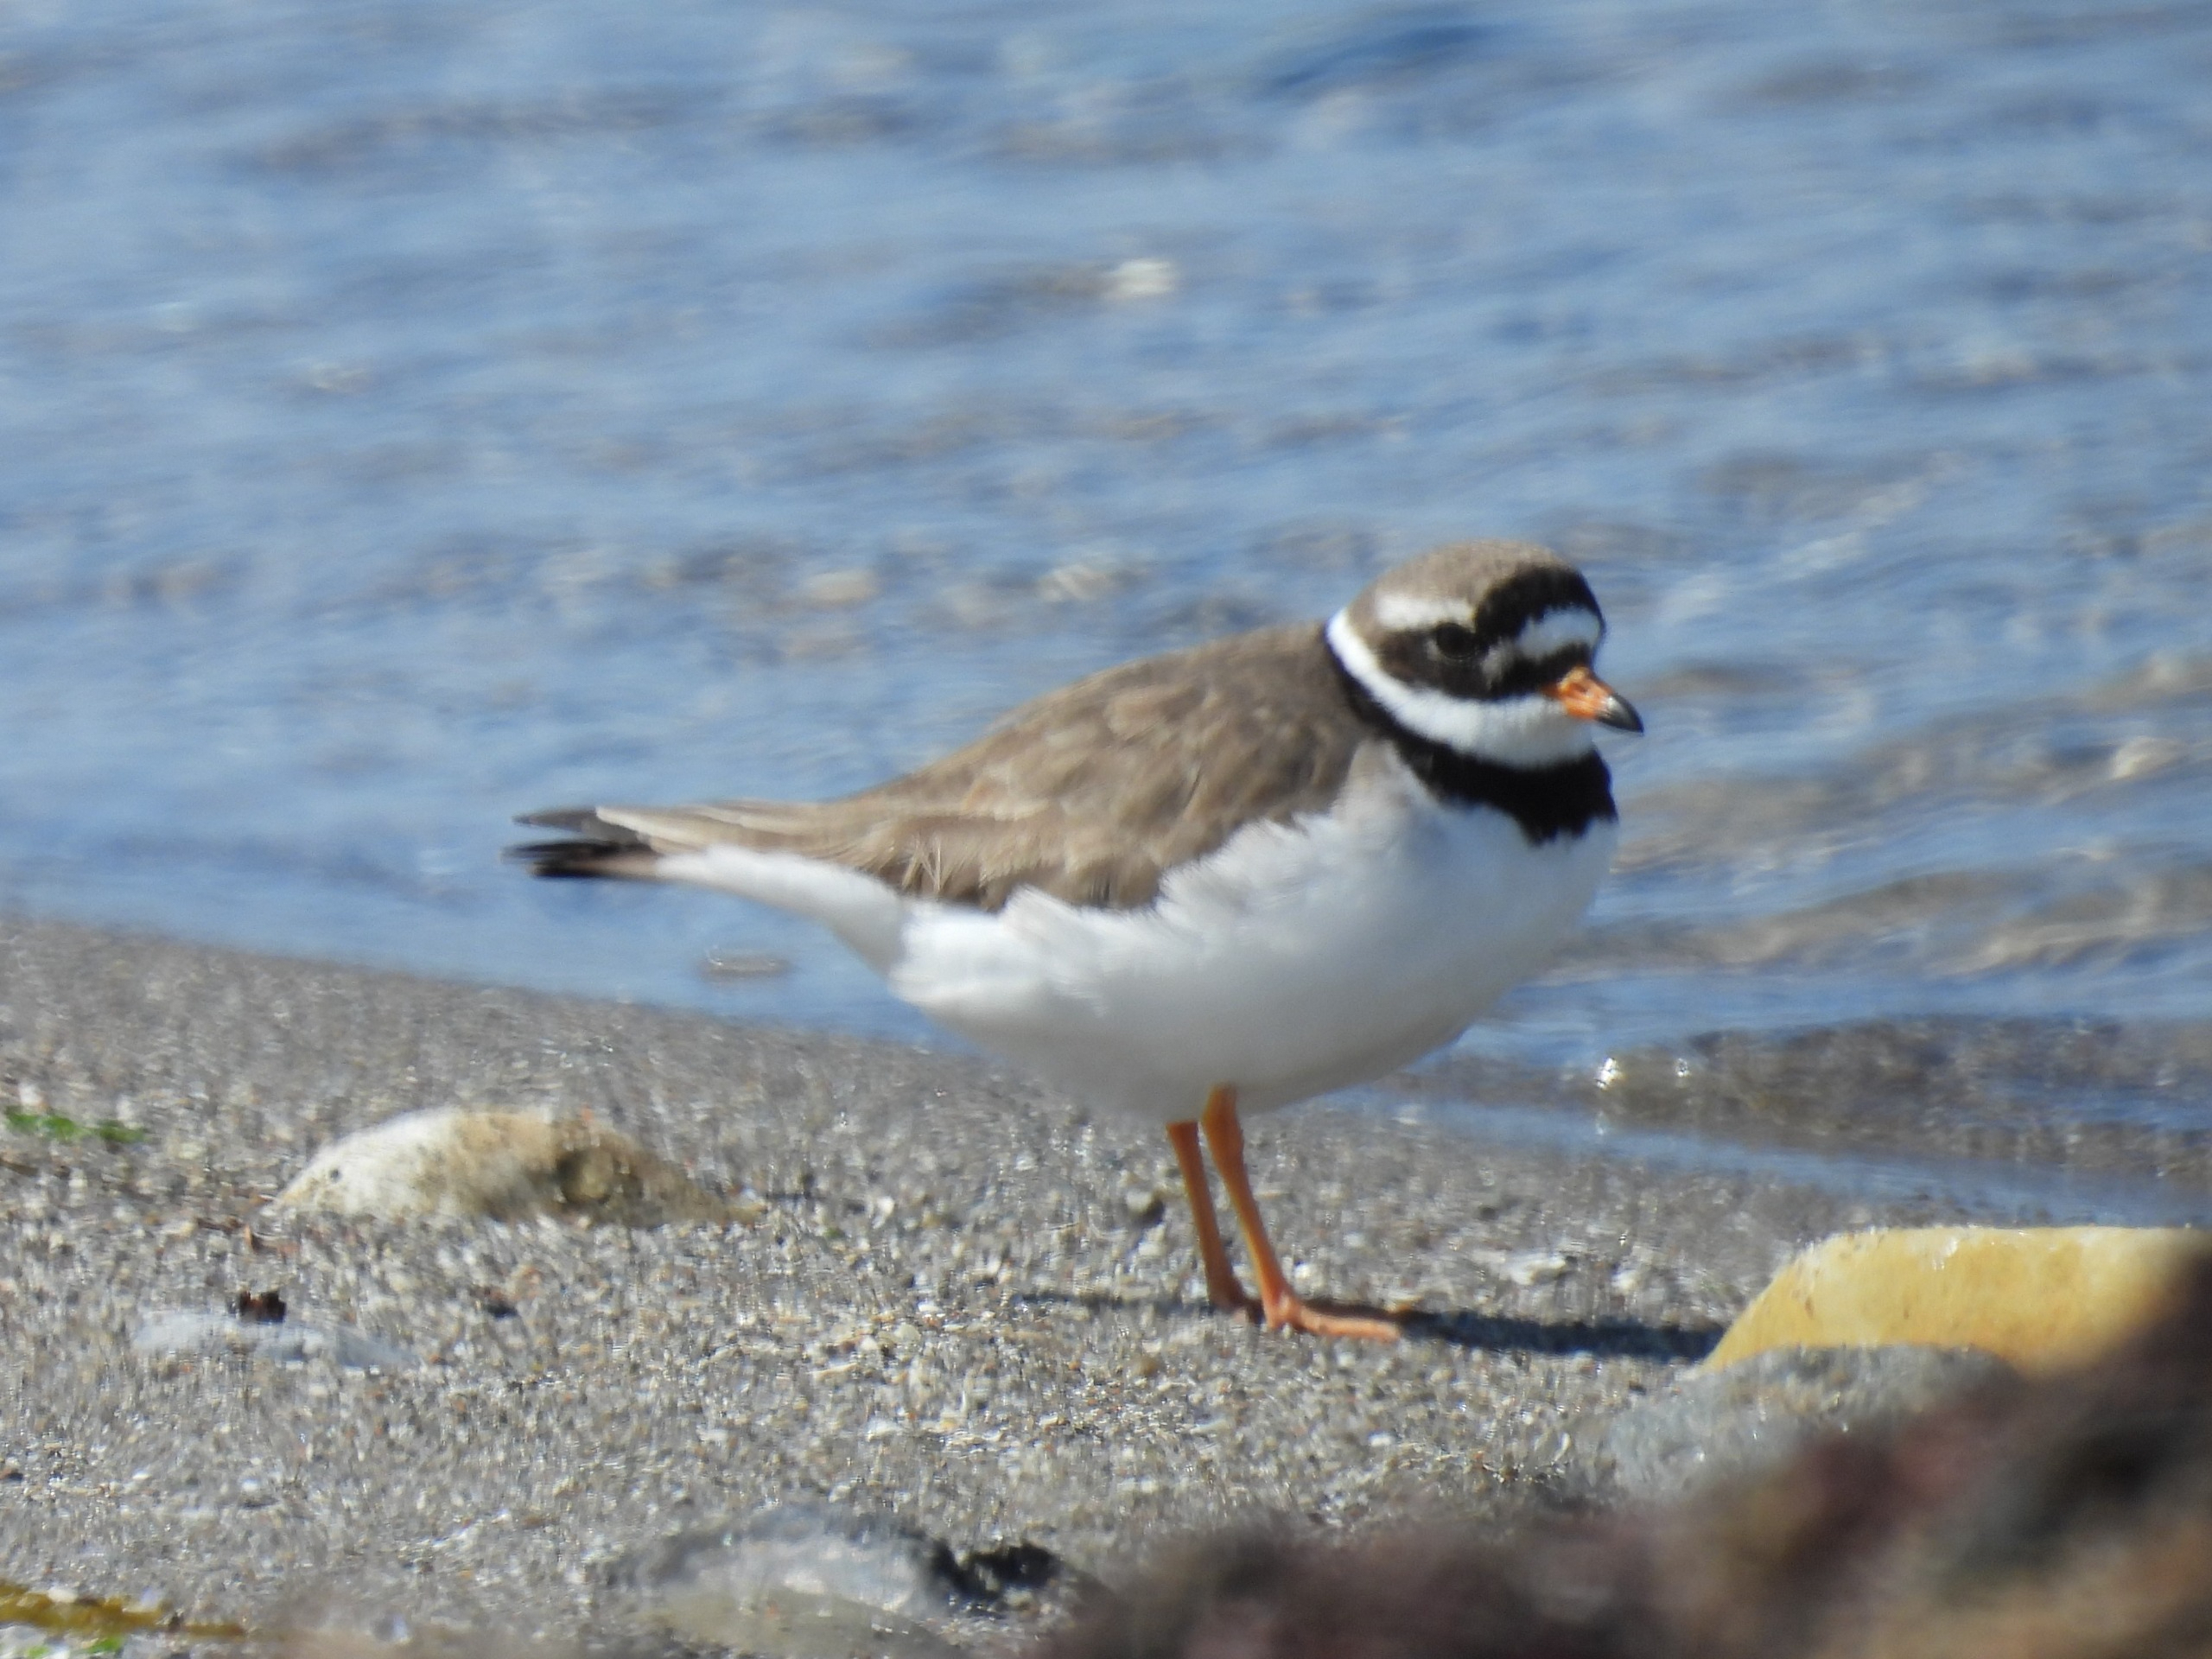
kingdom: Animalia
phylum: Chordata
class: Aves
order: Charadriiformes
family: Charadriidae
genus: Charadrius
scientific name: Charadrius hiaticula
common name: Stor præstekrave
